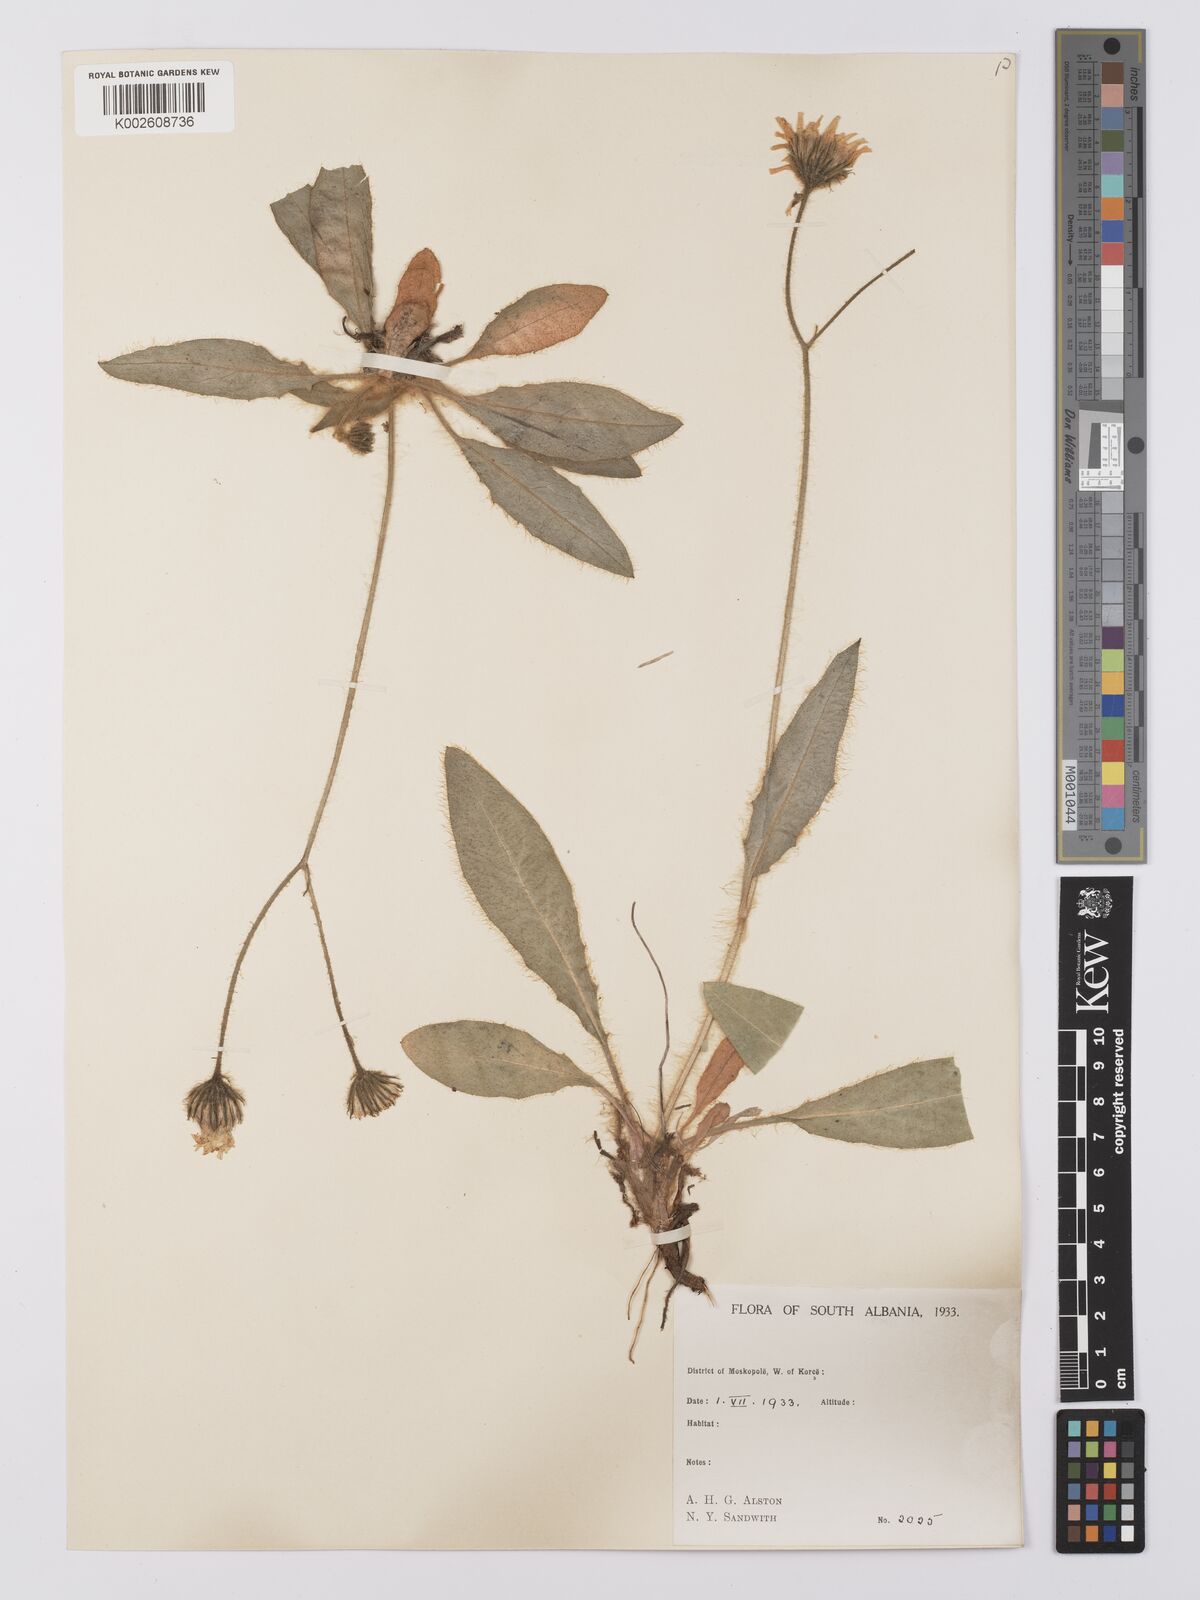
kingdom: Plantae
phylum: Tracheophyta
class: Magnoliopsida
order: Asterales
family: Asteraceae
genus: Hieracium
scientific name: Hieracium sartorianum
